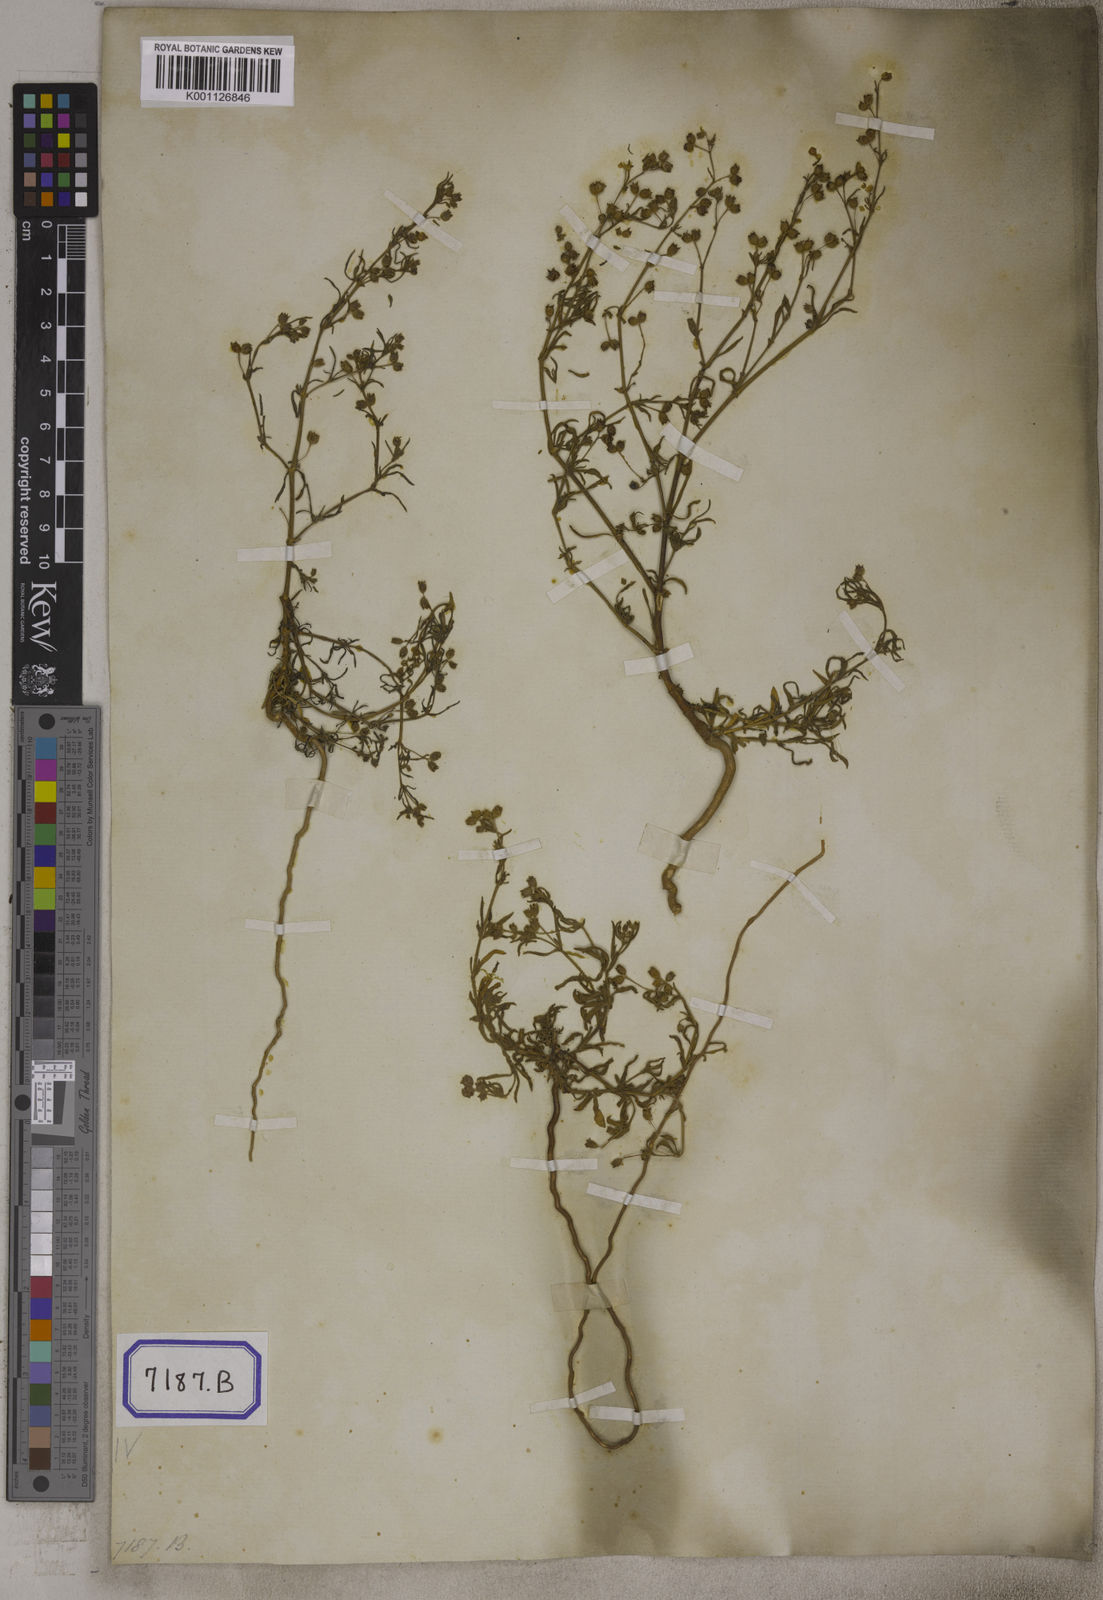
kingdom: Plantae
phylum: Tracheophyta
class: Magnoliopsida
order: Vahliales
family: Vahliaceae
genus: Vahlia
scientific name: Vahlia dichotoma
